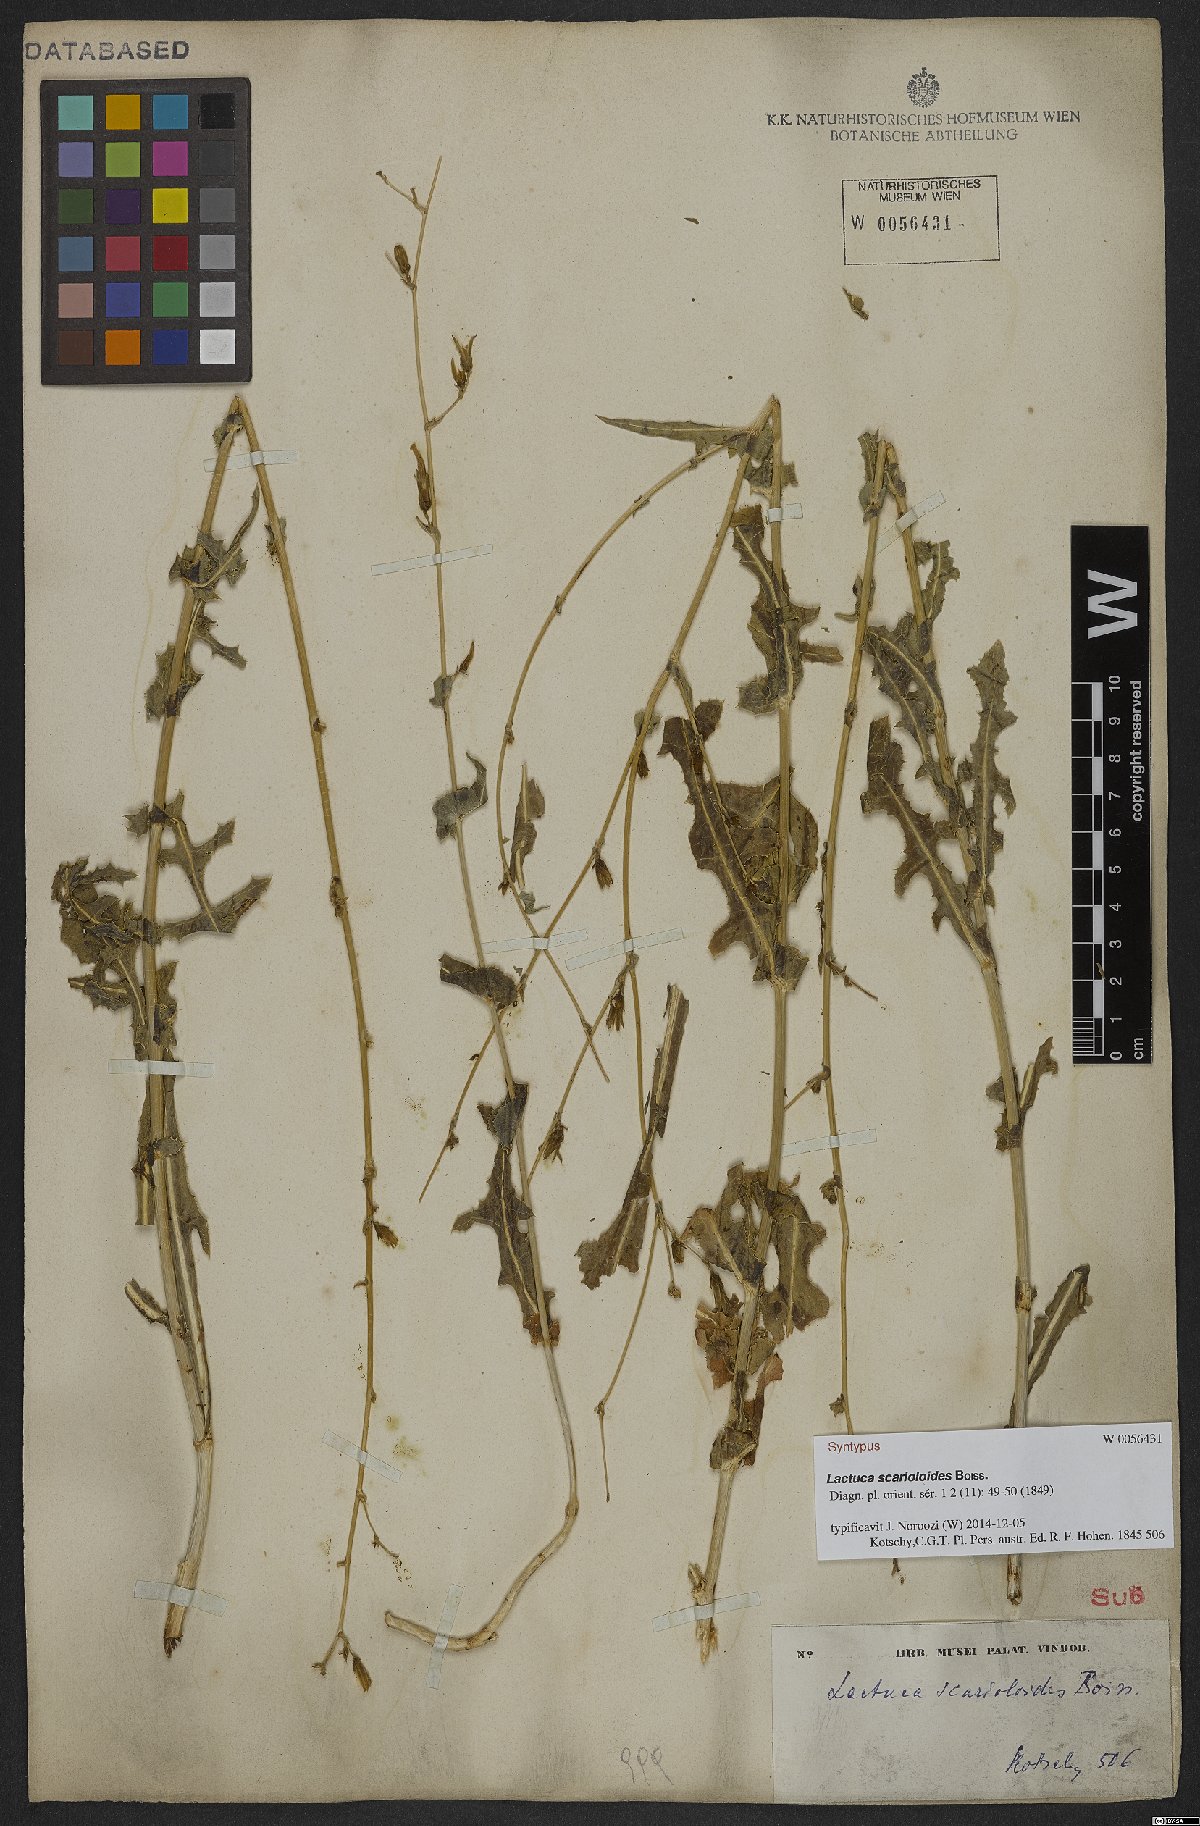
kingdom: Plantae
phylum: Tracheophyta
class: Magnoliopsida
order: Asterales
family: Asteraceae
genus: Lactuca
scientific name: Lactuca scarioloides
